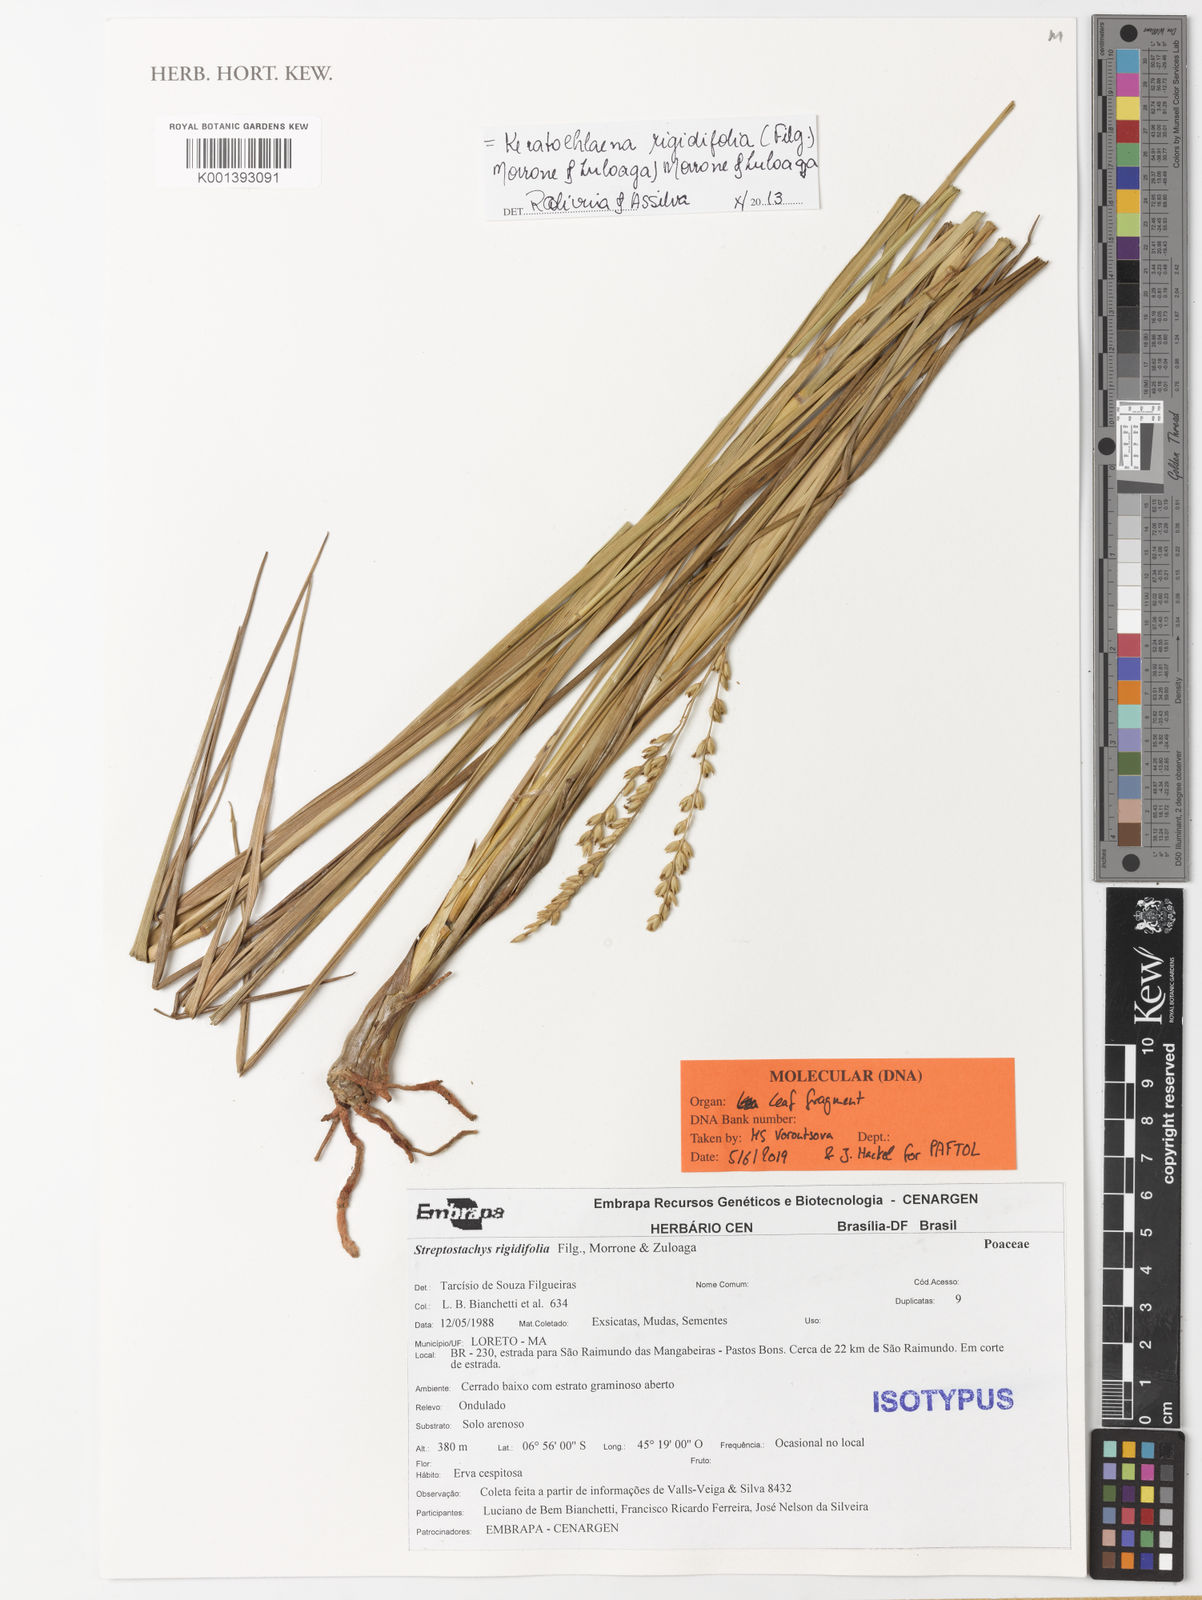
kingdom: Plantae
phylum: Tracheophyta
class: Liliopsida
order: Poales
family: Poaceae
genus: Keratochlaena
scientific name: Keratochlaena rigidifolia
